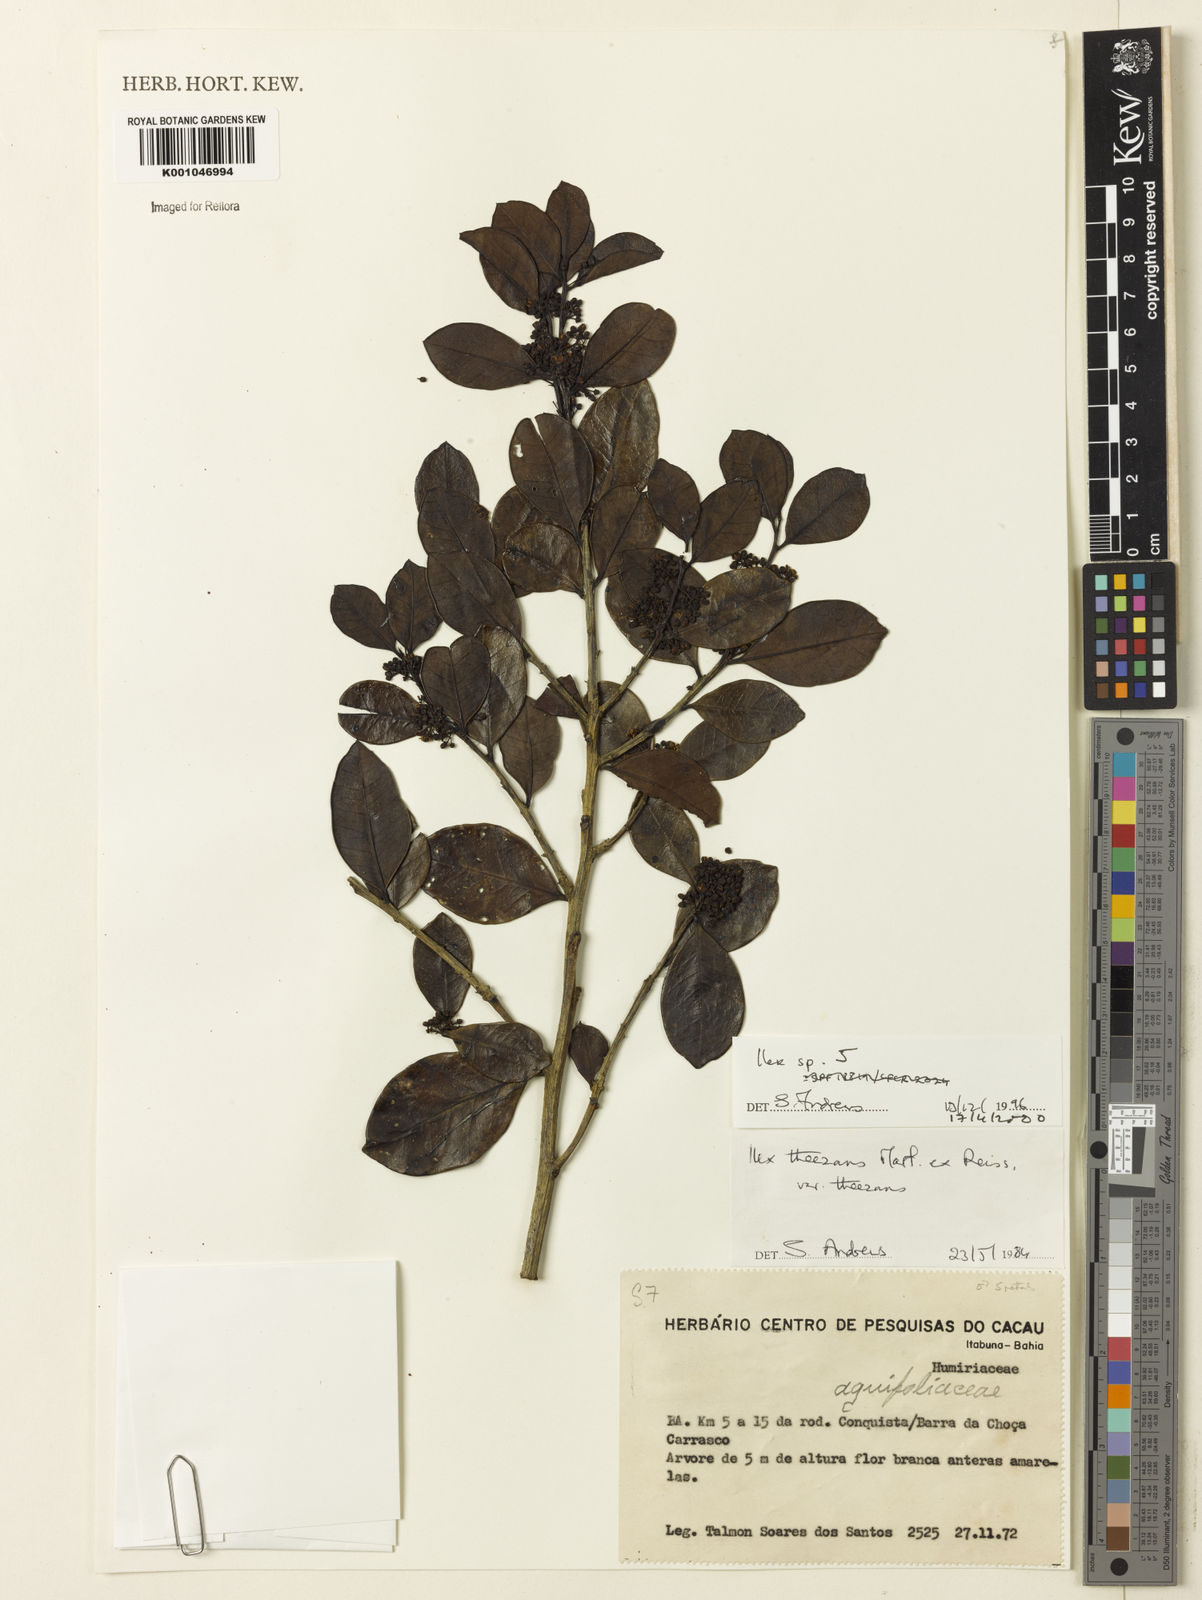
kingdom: Plantae
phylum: Tracheophyta
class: Magnoliopsida
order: Aquifoliales
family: Aquifoliaceae
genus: Ilex
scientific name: Ilex
